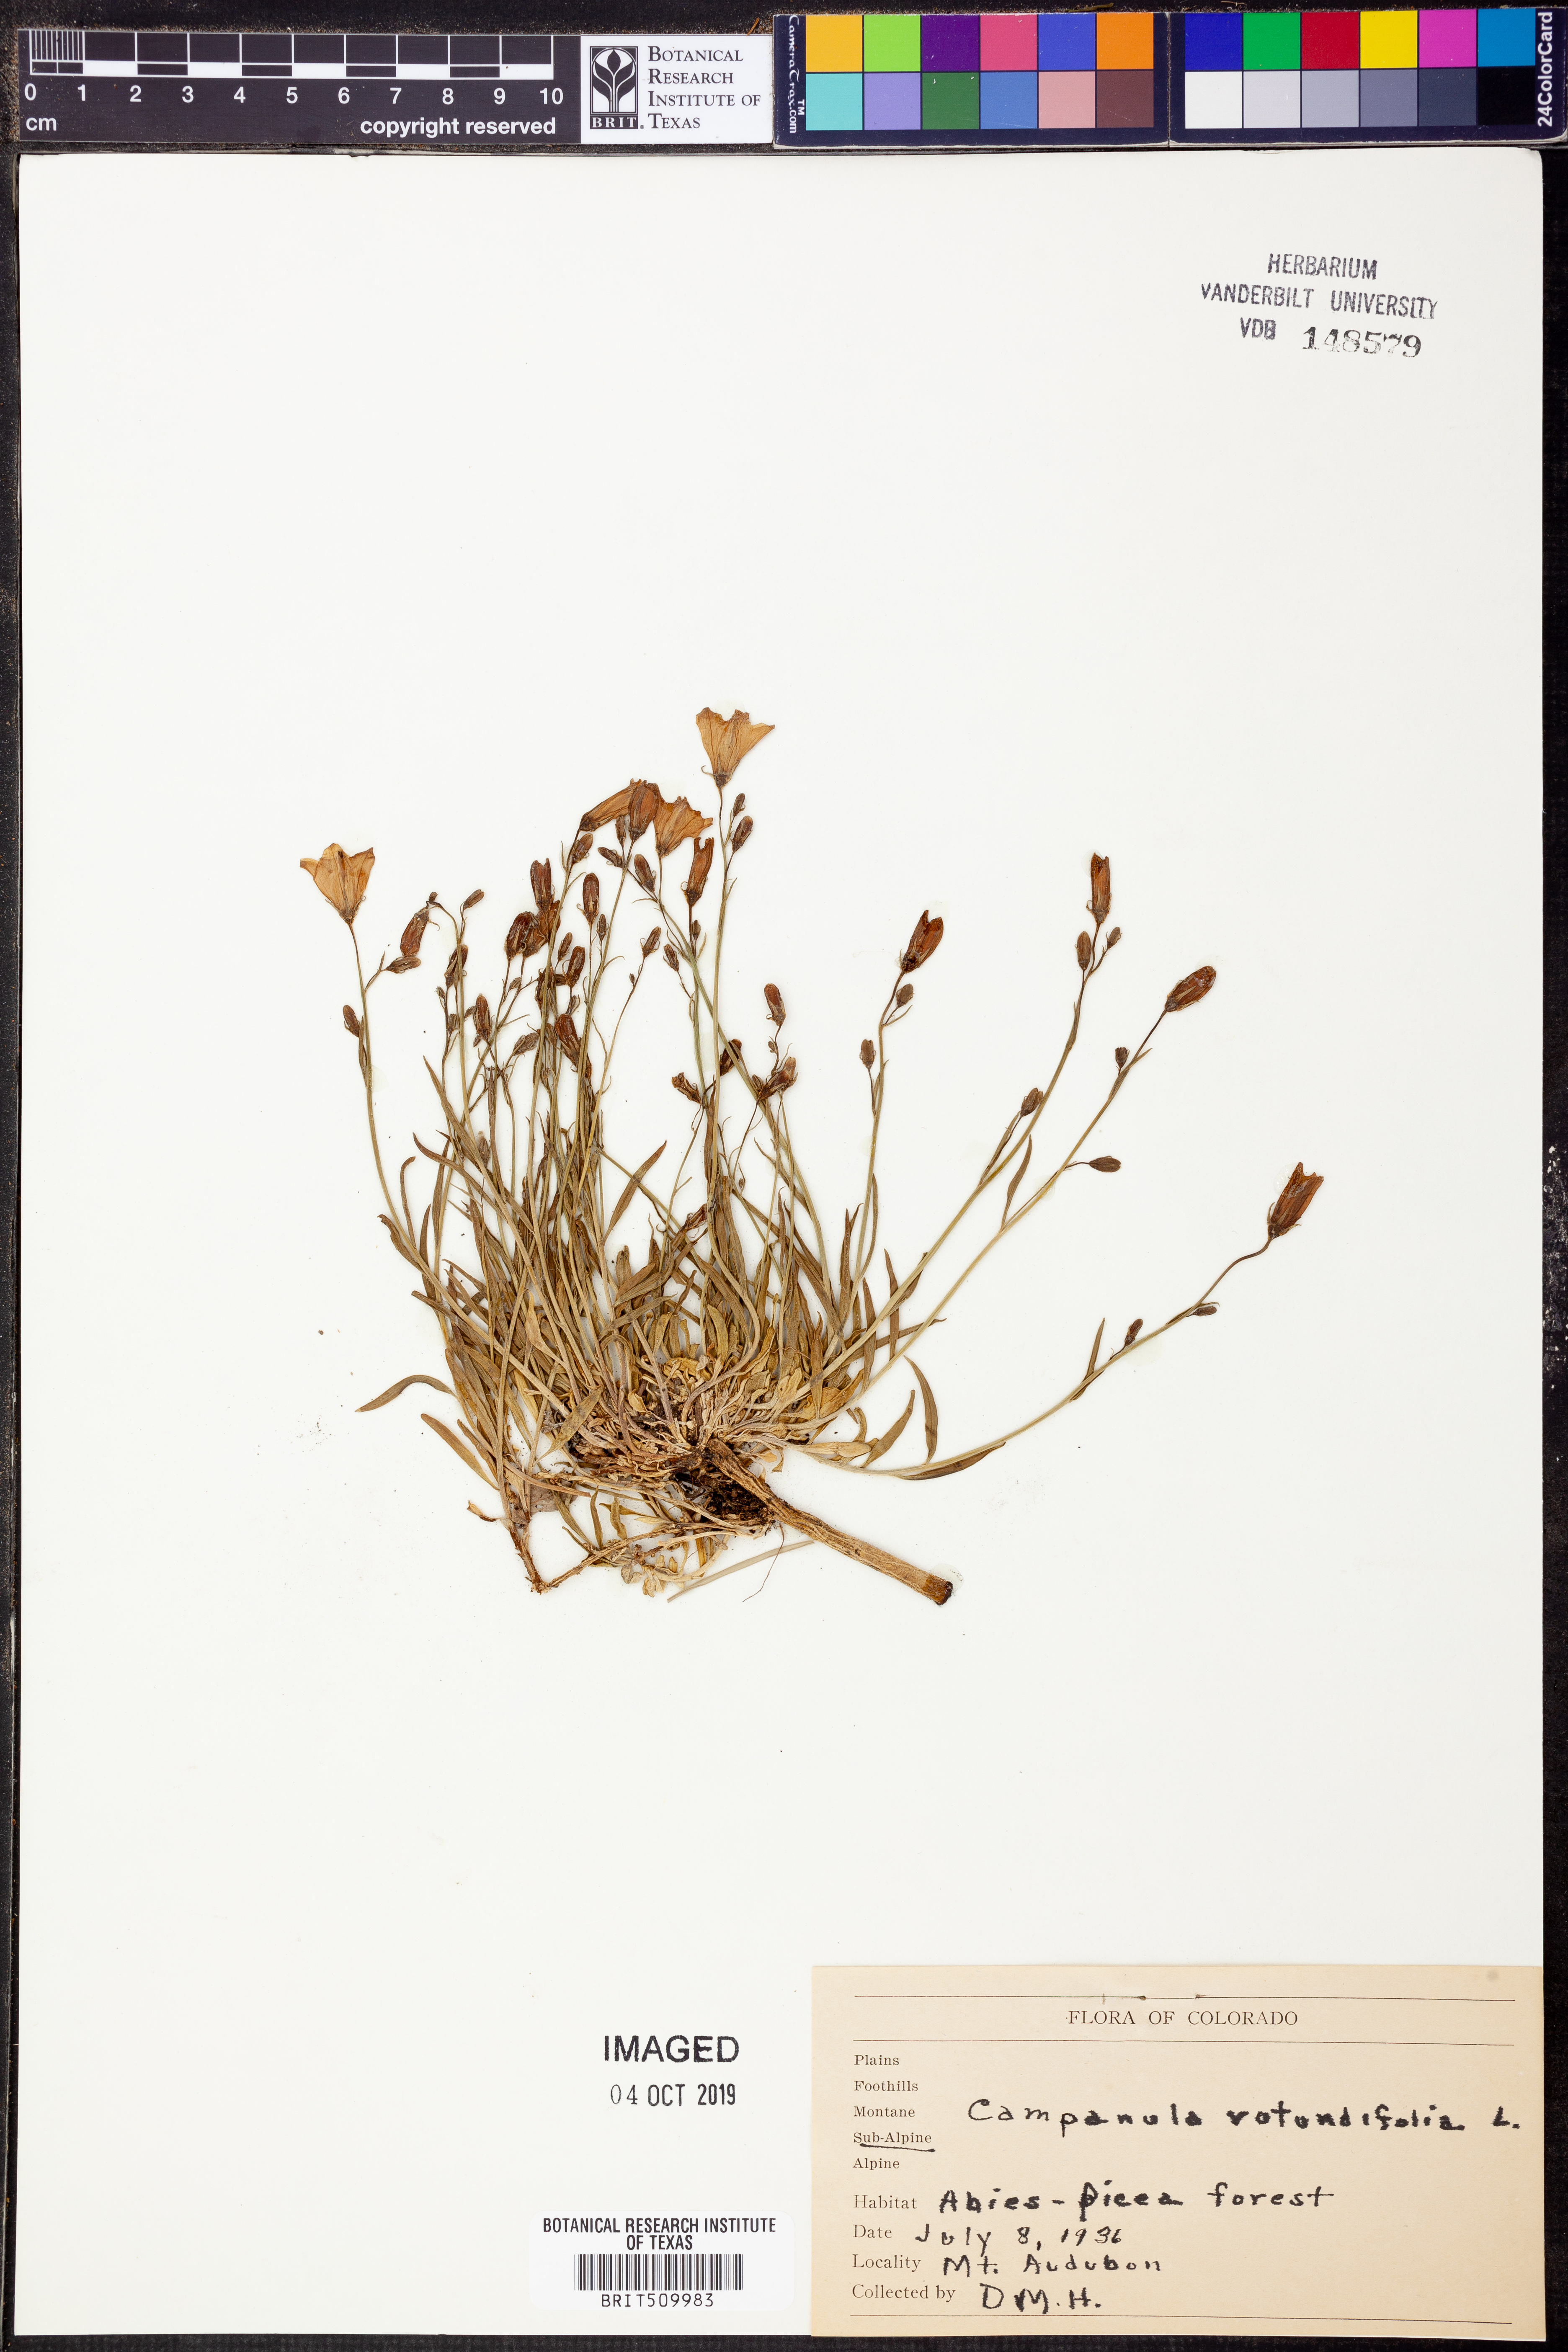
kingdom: Plantae
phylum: Tracheophyta
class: Magnoliopsida
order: Asterales
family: Campanulaceae
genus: Campanula
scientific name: Campanula rotundifolia
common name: Harebell
